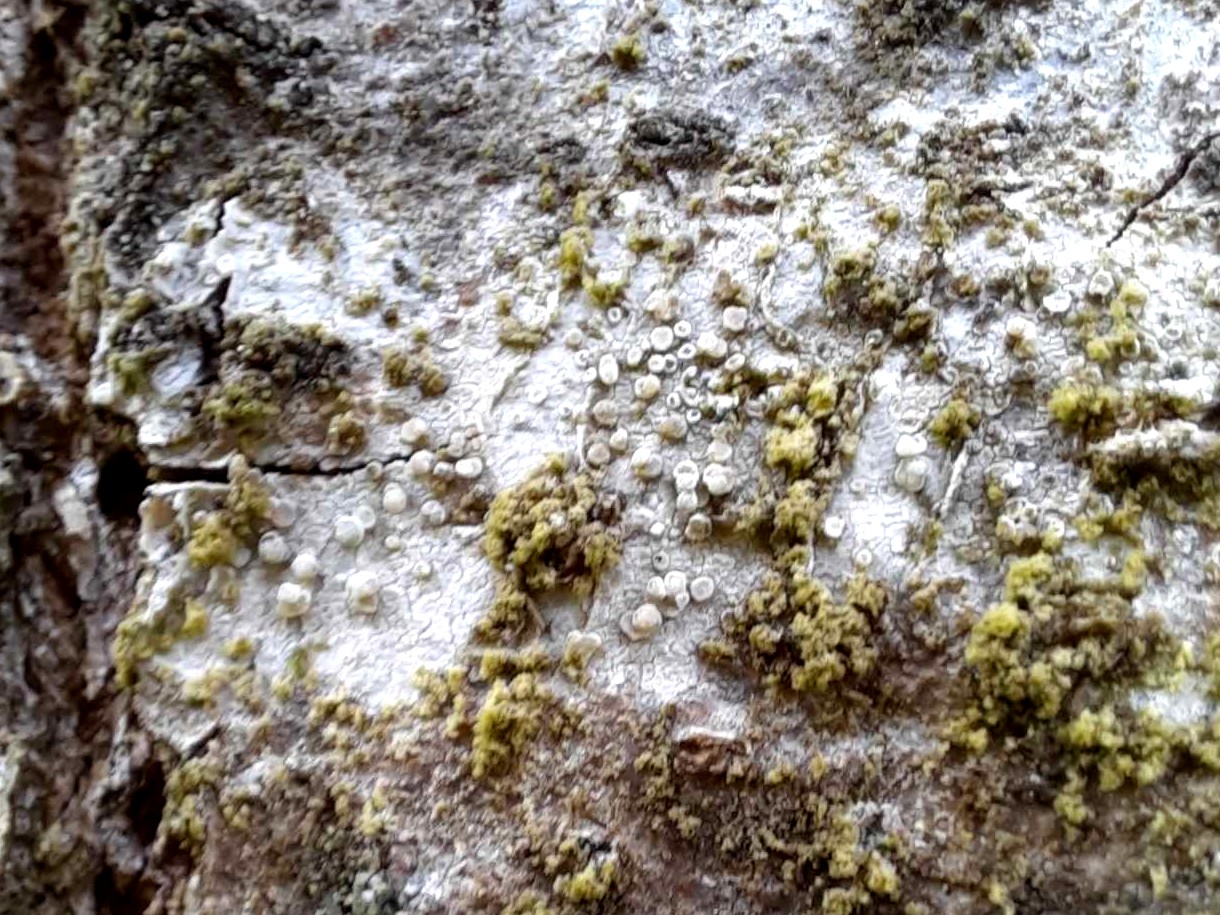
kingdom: Fungi
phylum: Ascomycota
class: Lecanoromycetes
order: Lecanorales
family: Lecanoraceae
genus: Glaucomaria
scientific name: Glaucomaria carpinea
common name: hviddugget kantskivelav
